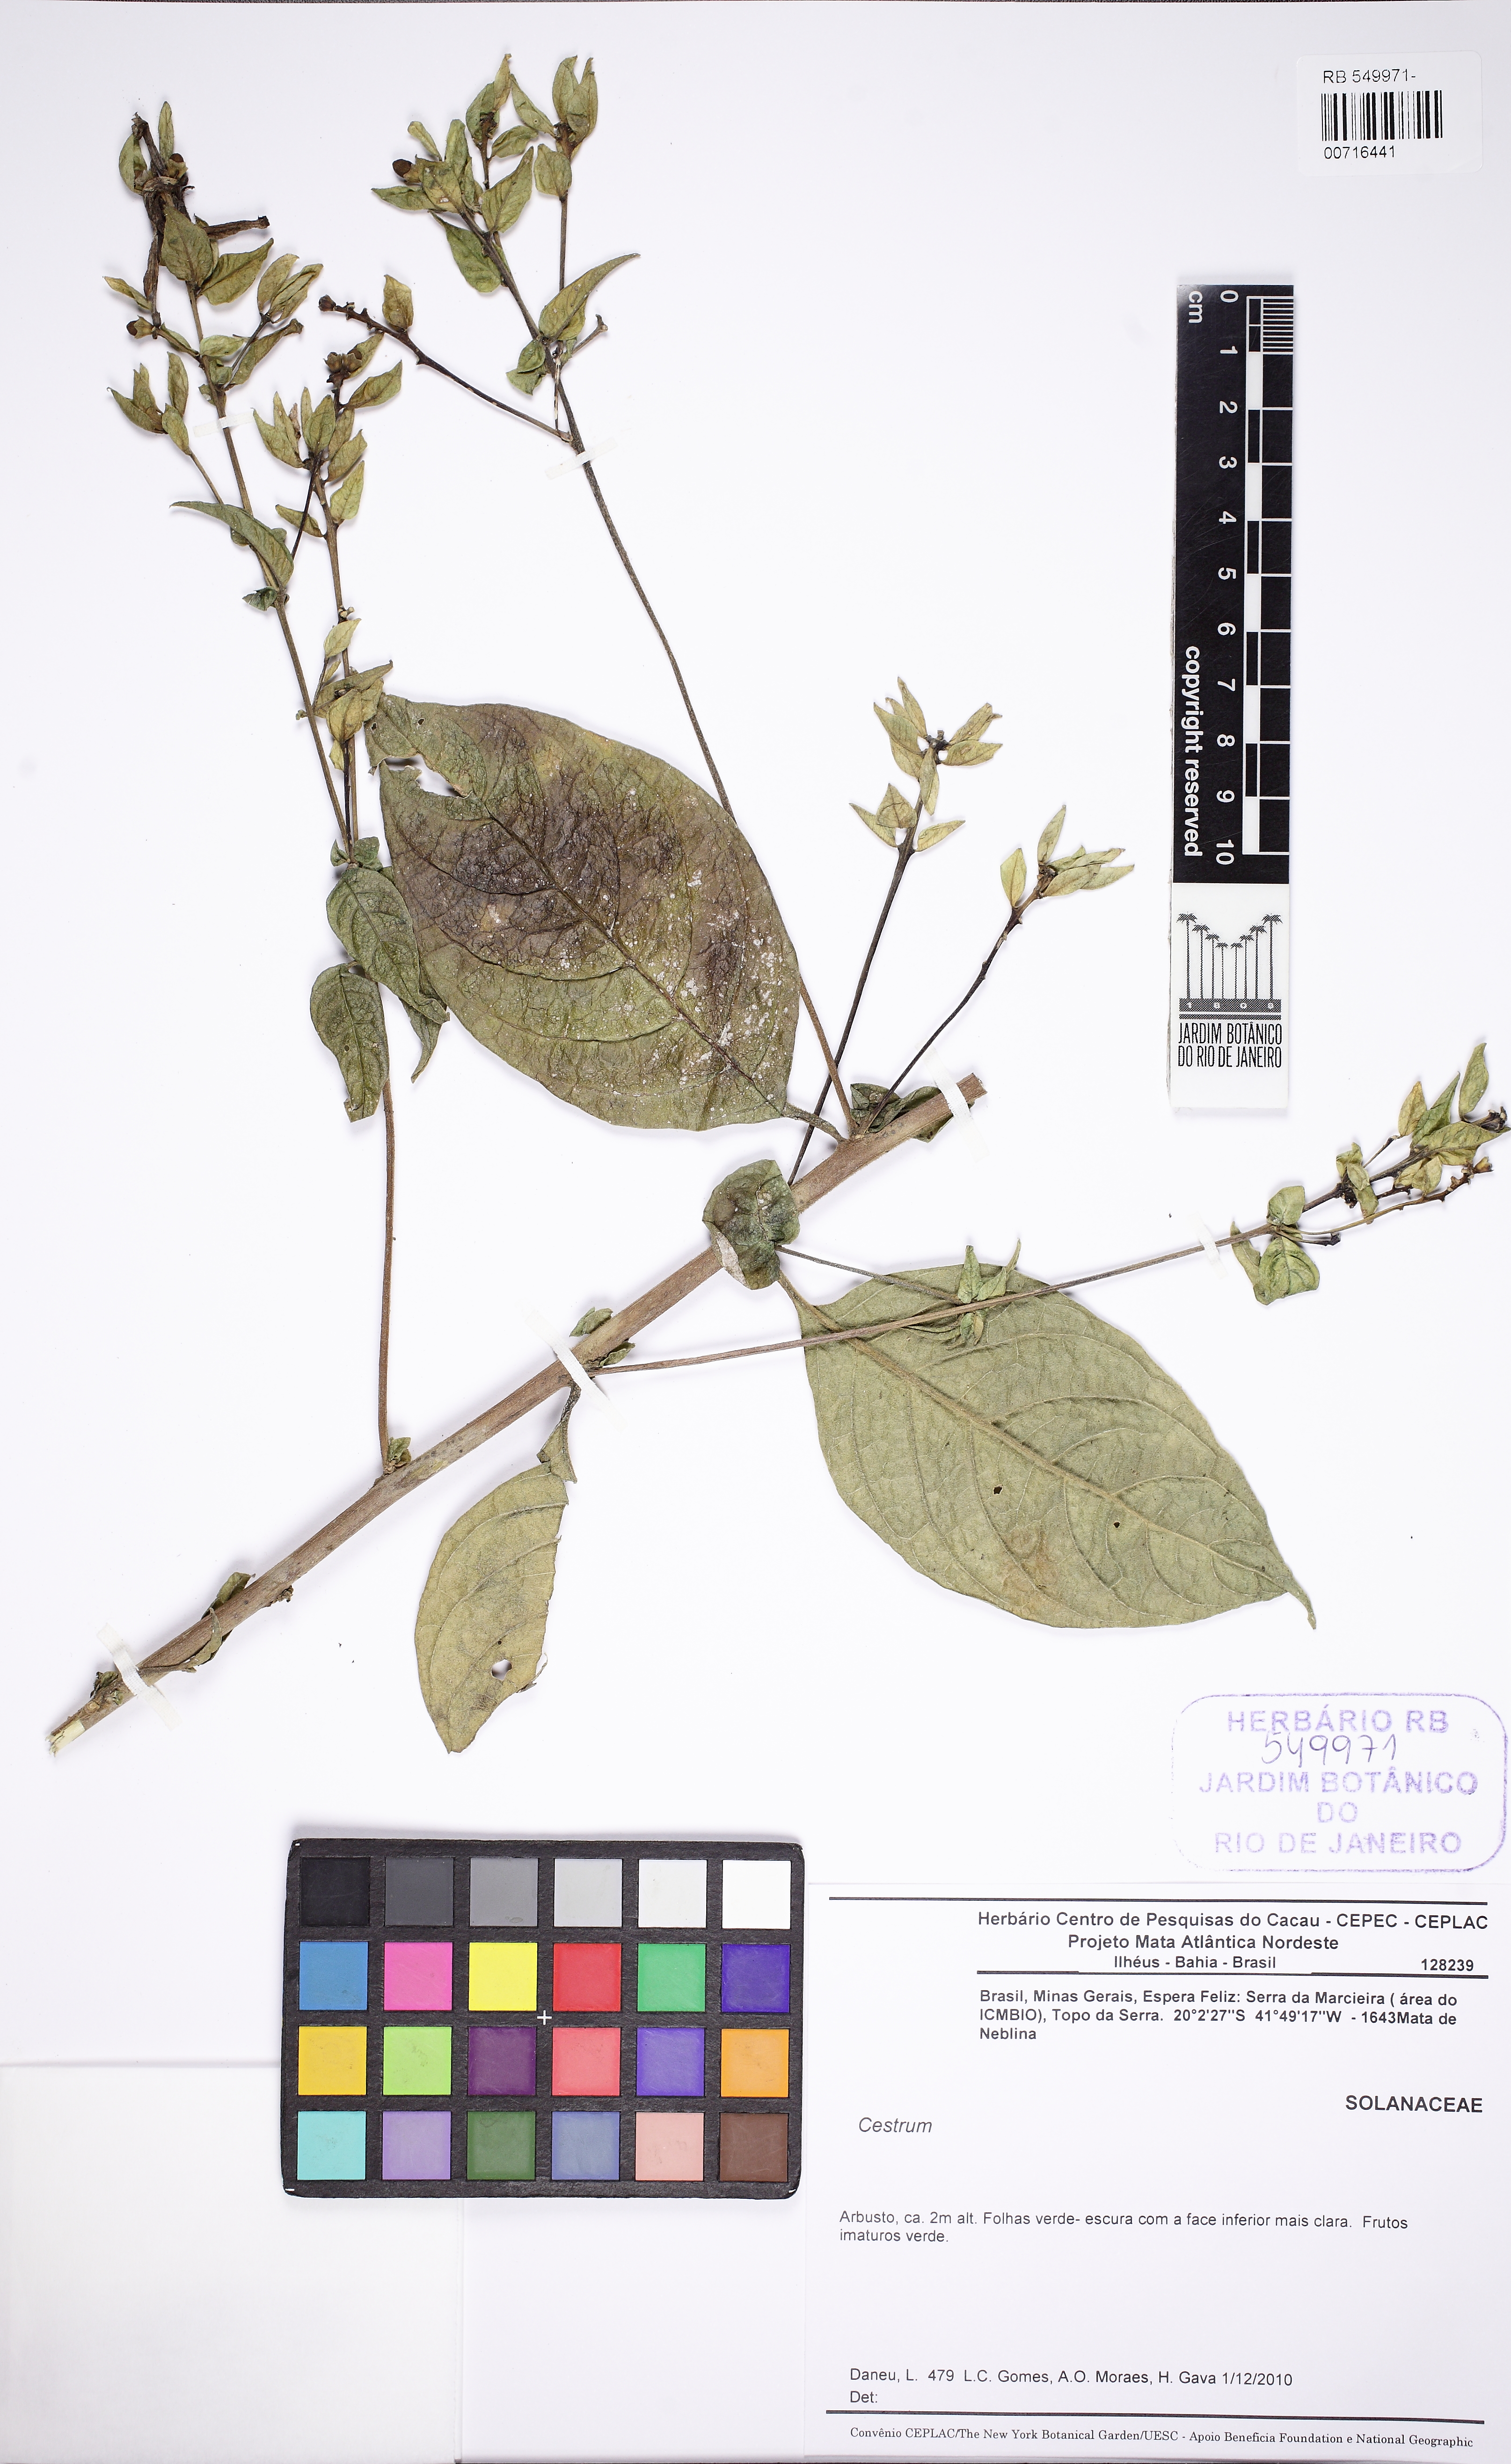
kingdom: Plantae
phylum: Tracheophyta
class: Magnoliopsida
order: Solanales
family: Solanaceae
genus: Cestrum
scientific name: Cestrum
